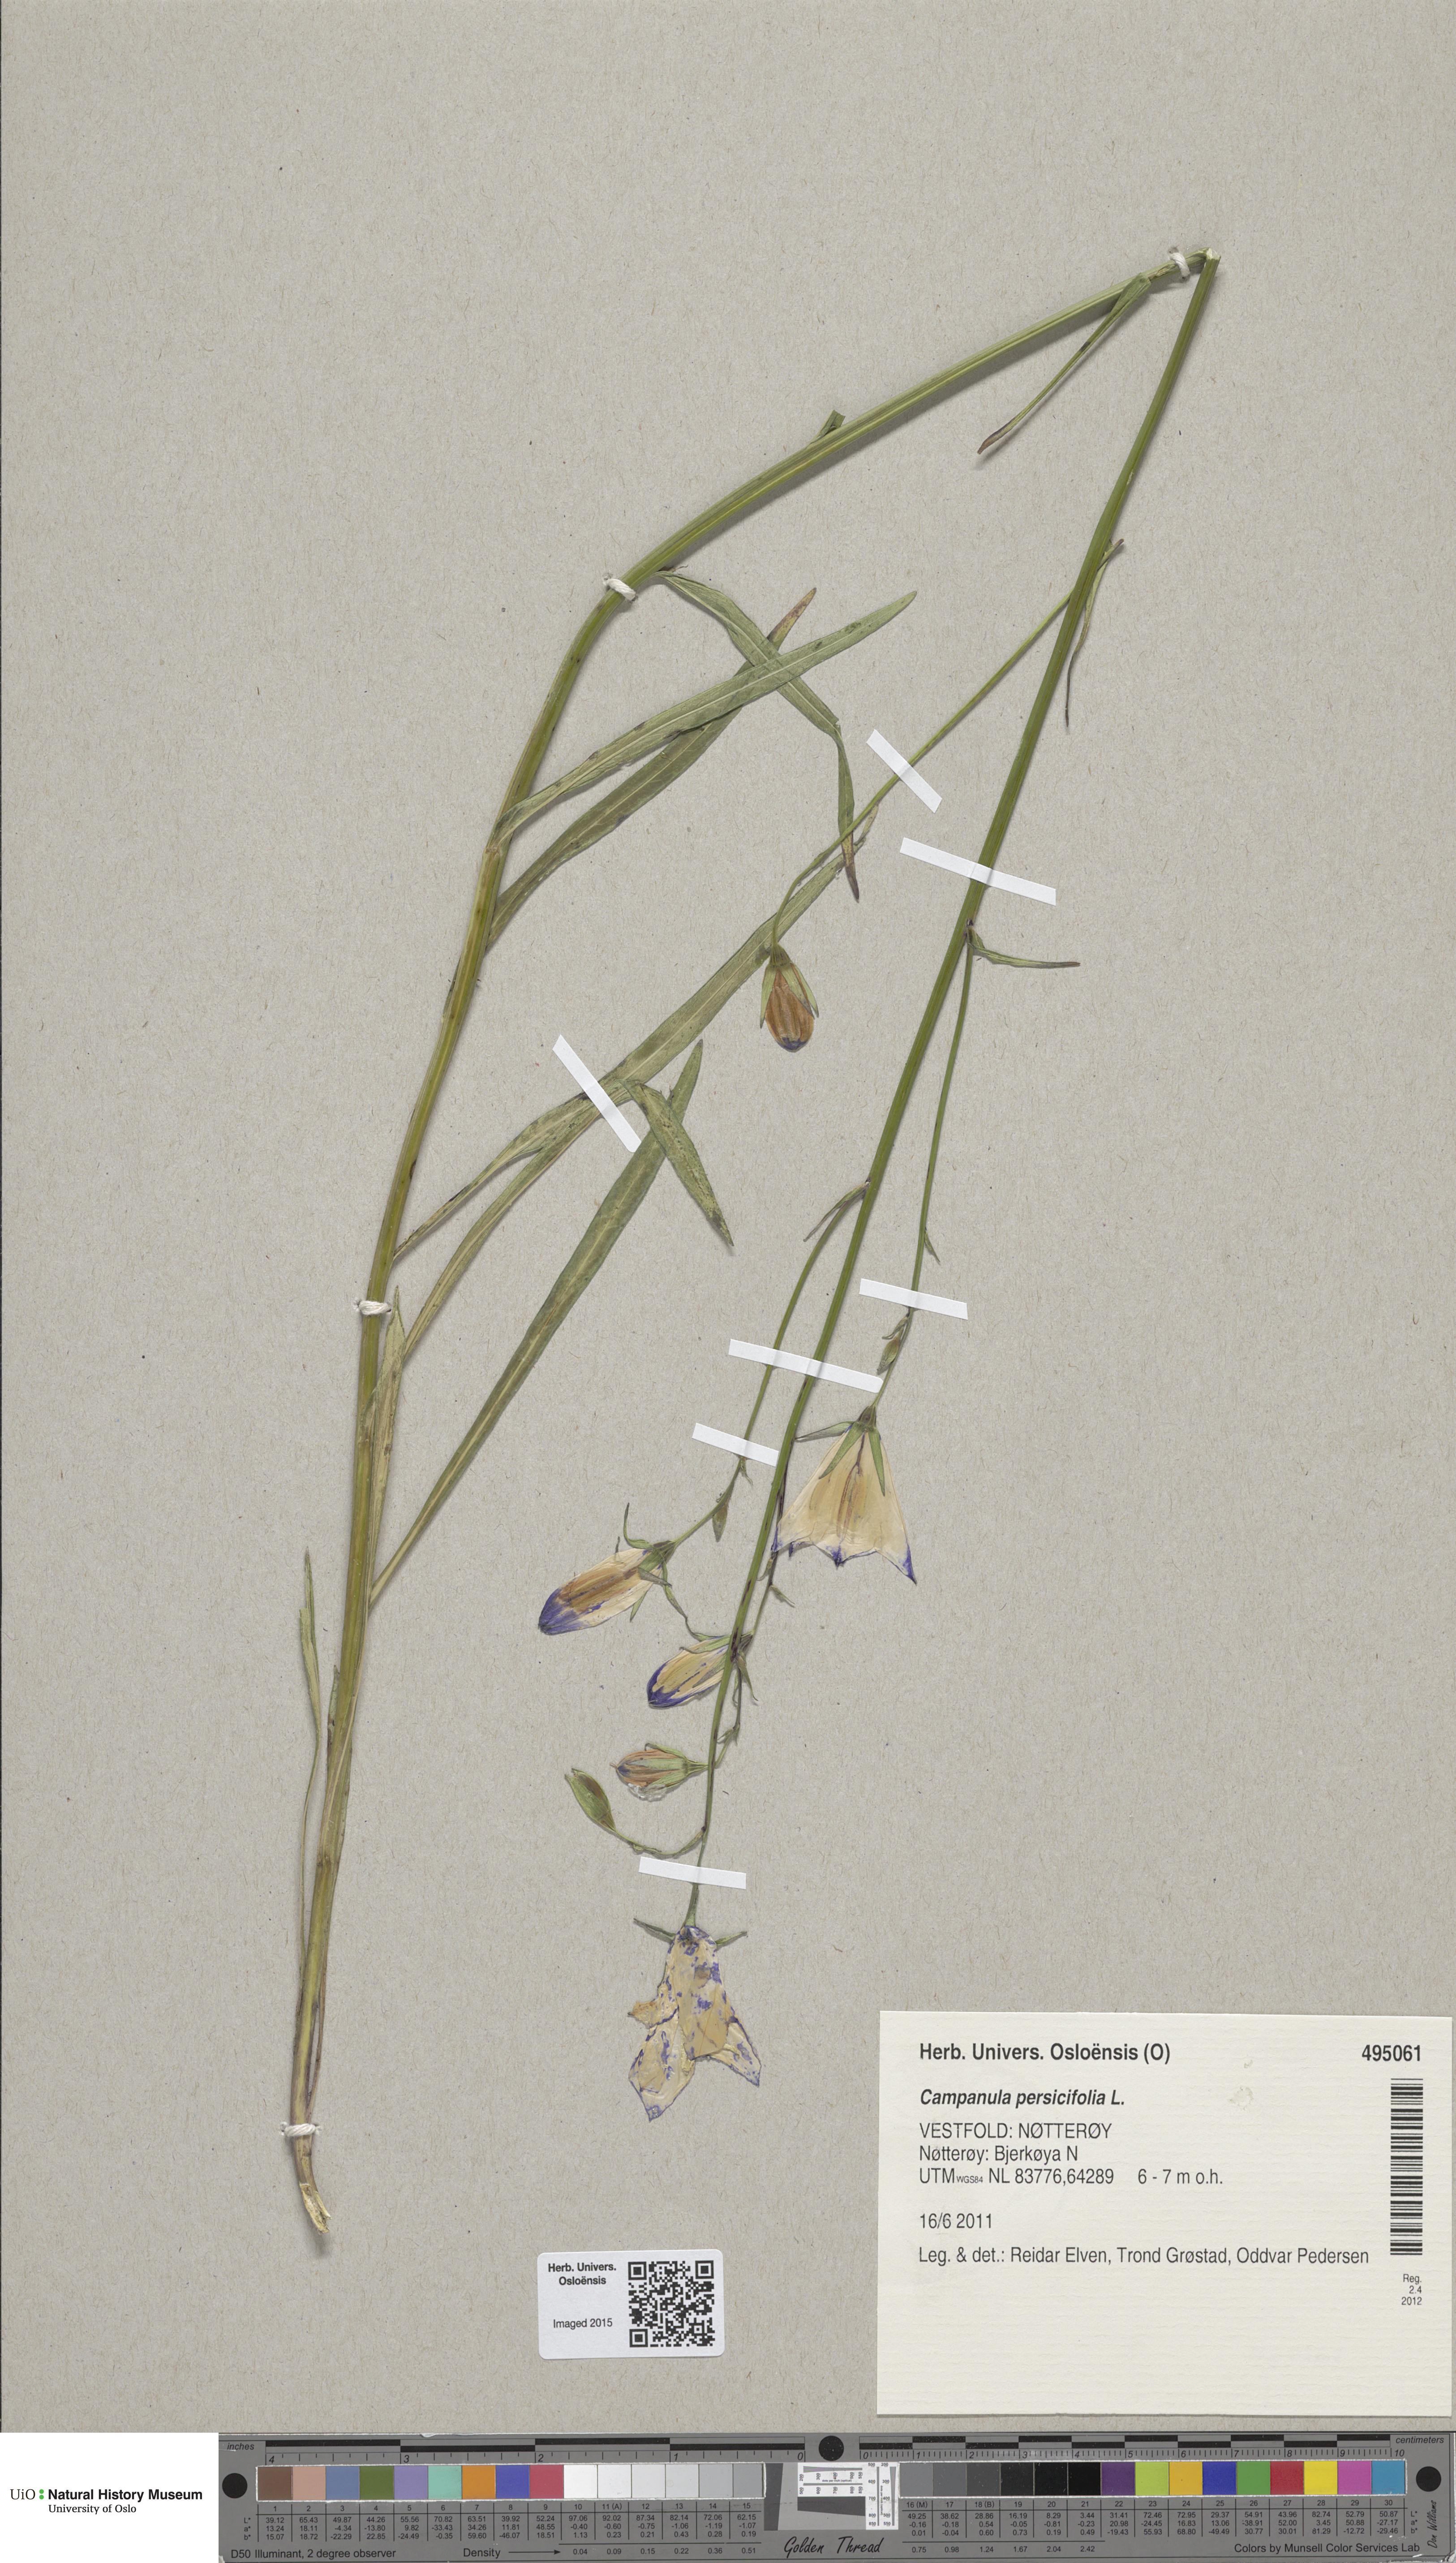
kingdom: Plantae
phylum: Tracheophyta
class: Magnoliopsida
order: Asterales
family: Campanulaceae
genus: Campanula
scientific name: Campanula persicifolia
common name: Peach-leaved bellflower
